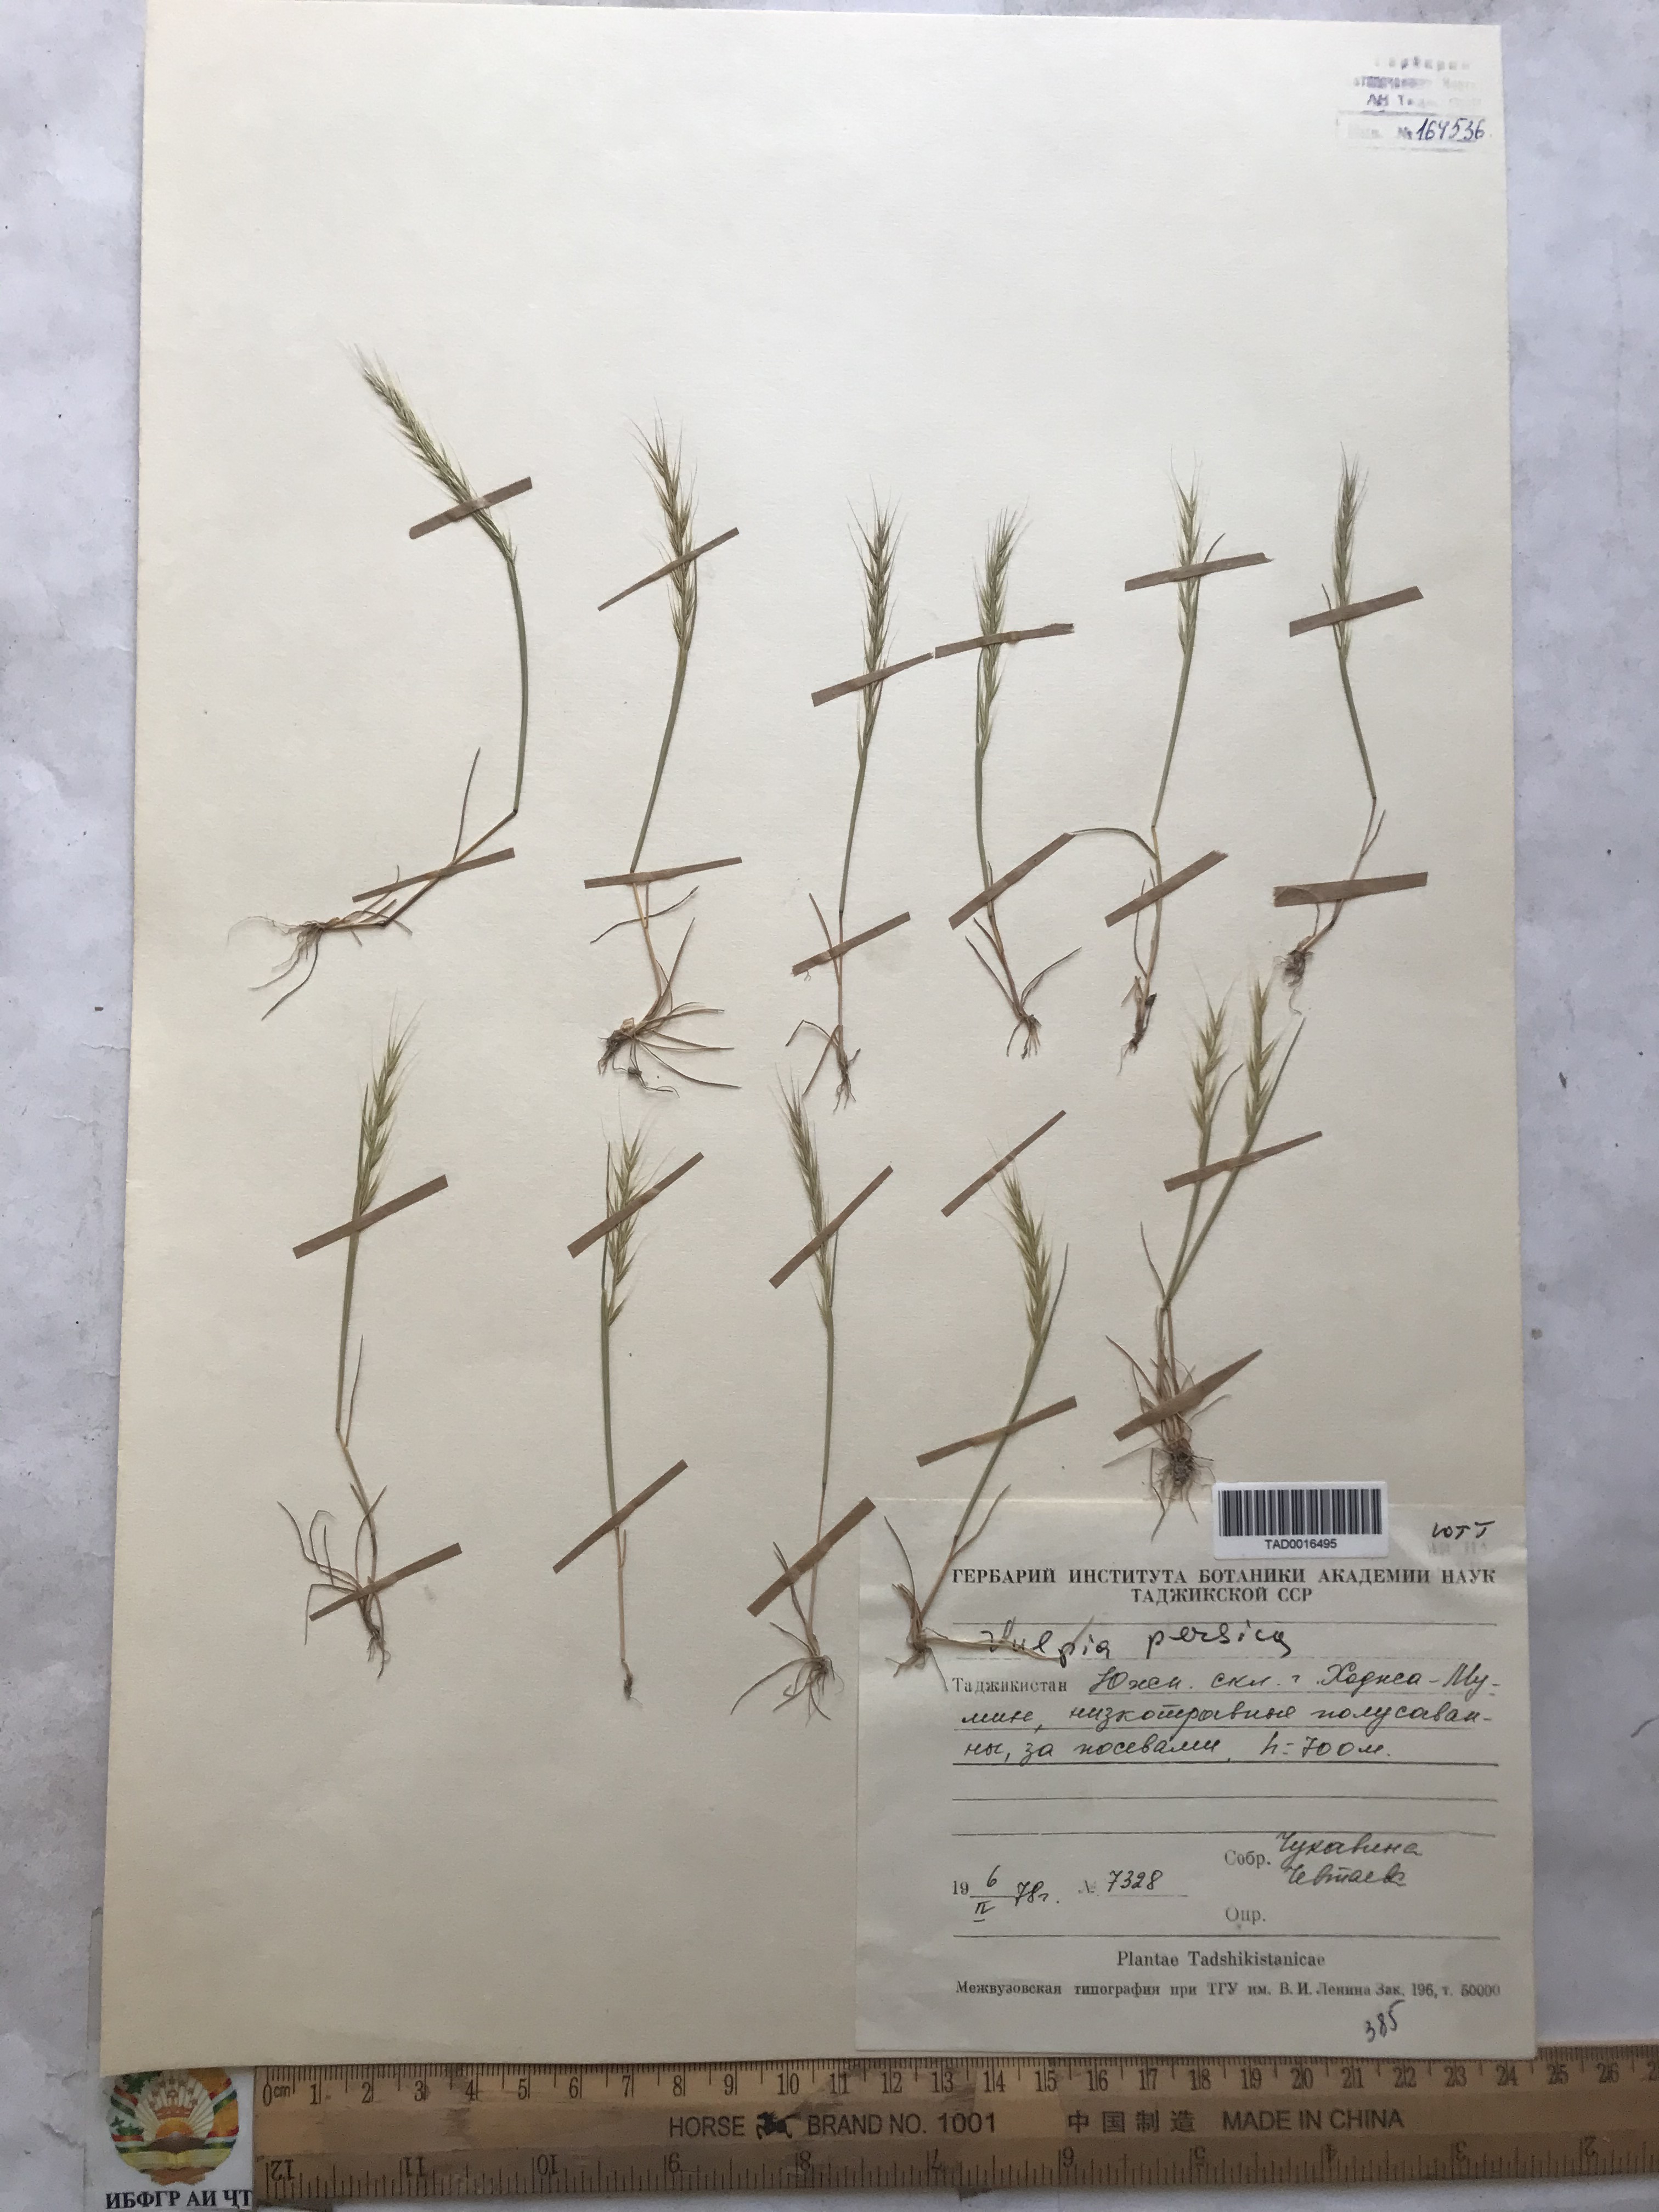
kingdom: Plantae
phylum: Tracheophyta
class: Liliopsida
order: Poales
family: Poaceae
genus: Festuca
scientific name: Festuca Vulpia persica
